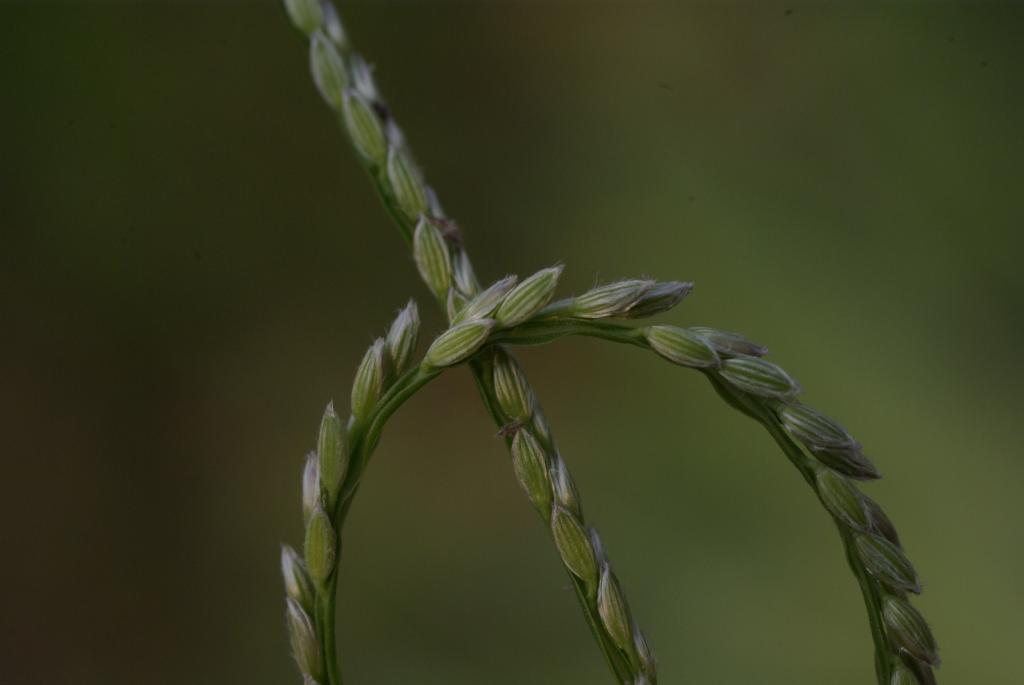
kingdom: Plantae
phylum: Tracheophyta
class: Liliopsida
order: Poales
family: Poaceae
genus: Digitaria
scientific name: Digitaria mollicoma
